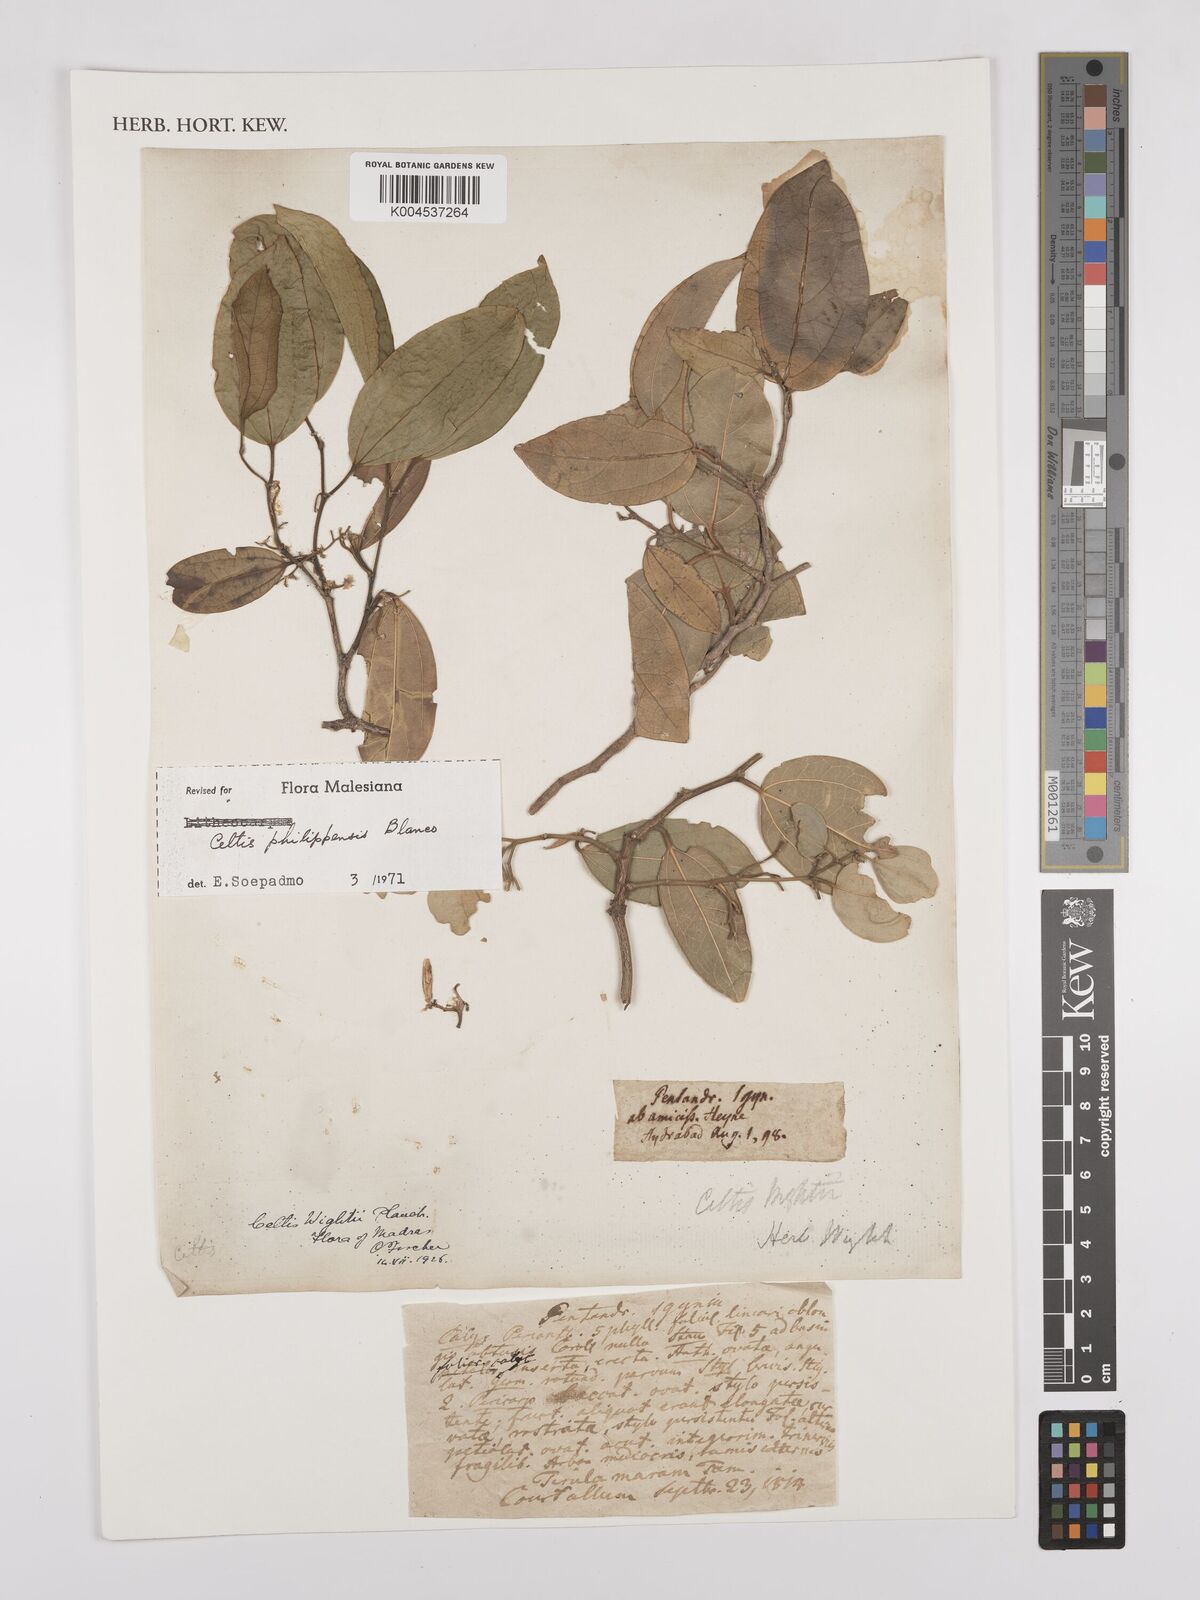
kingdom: Plantae
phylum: Tracheophyta
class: Magnoliopsida
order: Rosales
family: Cannabaceae
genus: Celtis
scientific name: Celtis philippensis
